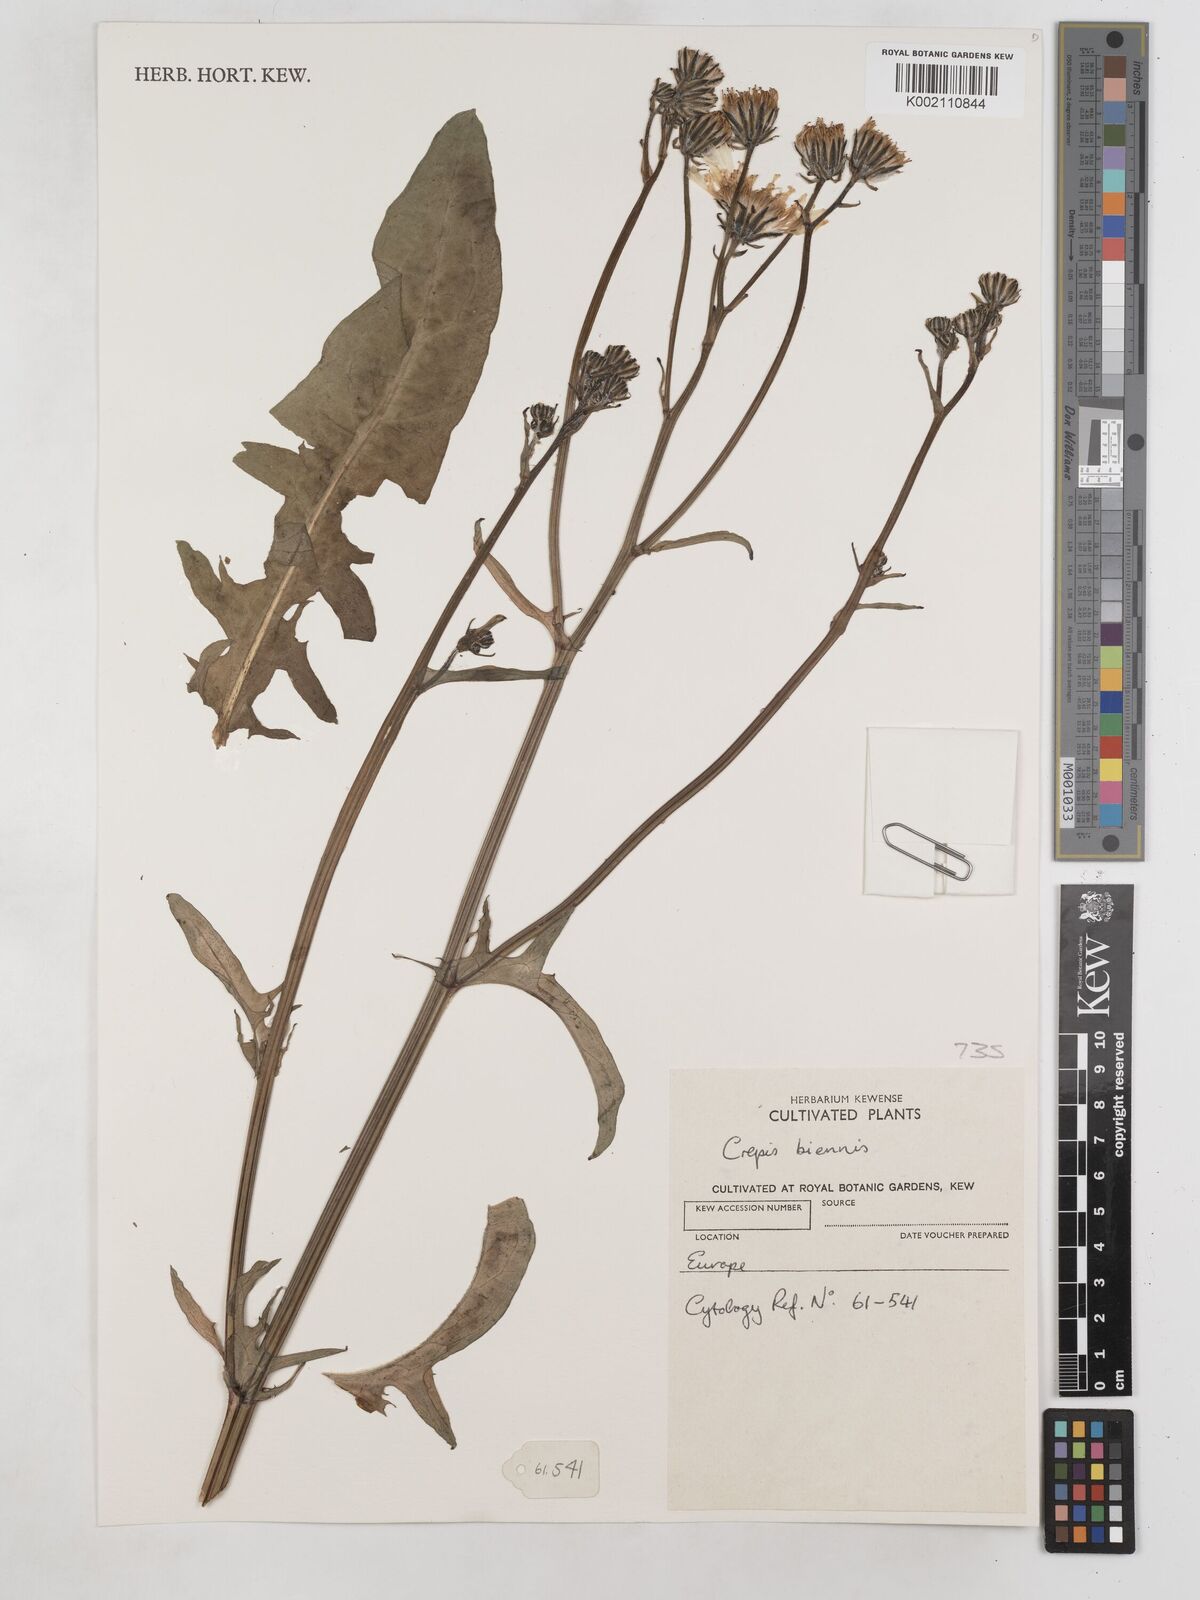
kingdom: Plantae
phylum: Tracheophyta
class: Magnoliopsida
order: Asterales
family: Asteraceae
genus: Crepis
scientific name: Crepis biennis
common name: Rough hawk's-beard
